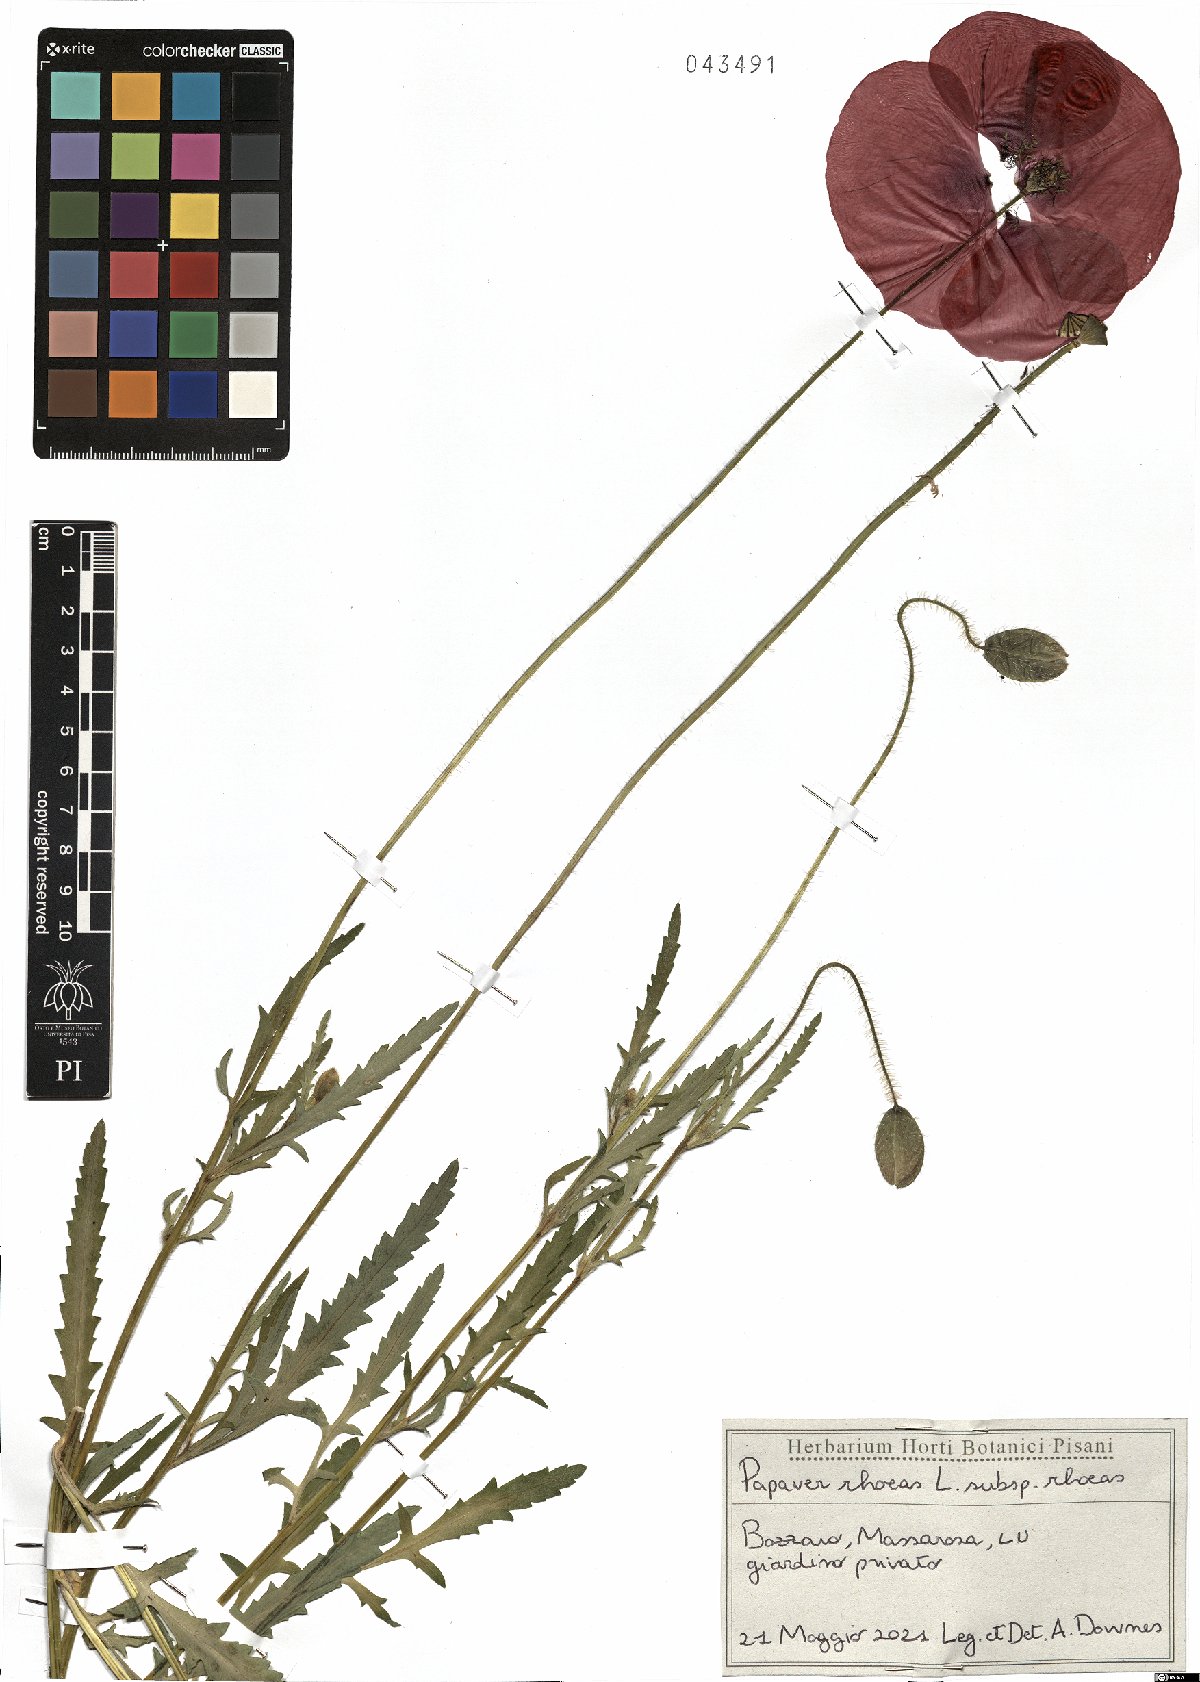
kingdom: Plantae
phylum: Tracheophyta
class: Magnoliopsida
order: Ranunculales
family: Papaveraceae
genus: Papaver
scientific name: Papaver rhoeas
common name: Corn poppy
